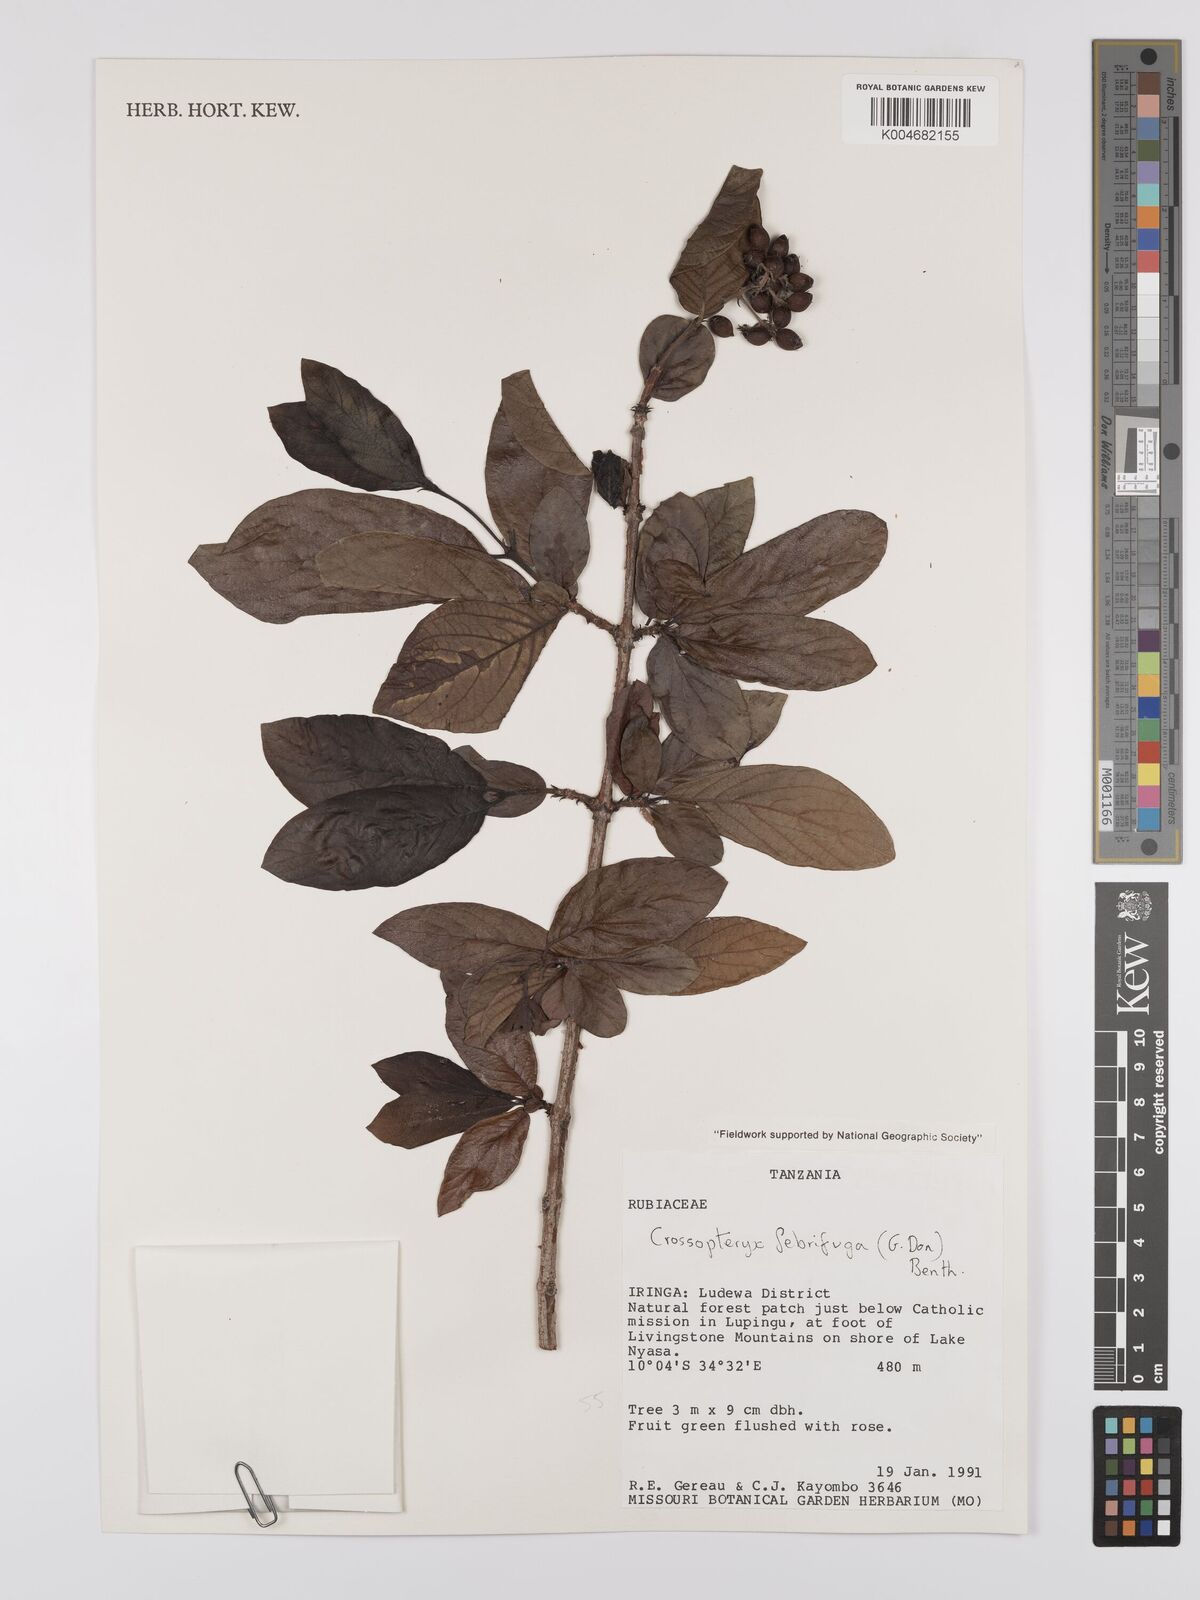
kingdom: Plantae
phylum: Tracheophyta
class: Magnoliopsida
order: Gentianales
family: Rubiaceae
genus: Crossopteryx
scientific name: Crossopteryx febrifuga
